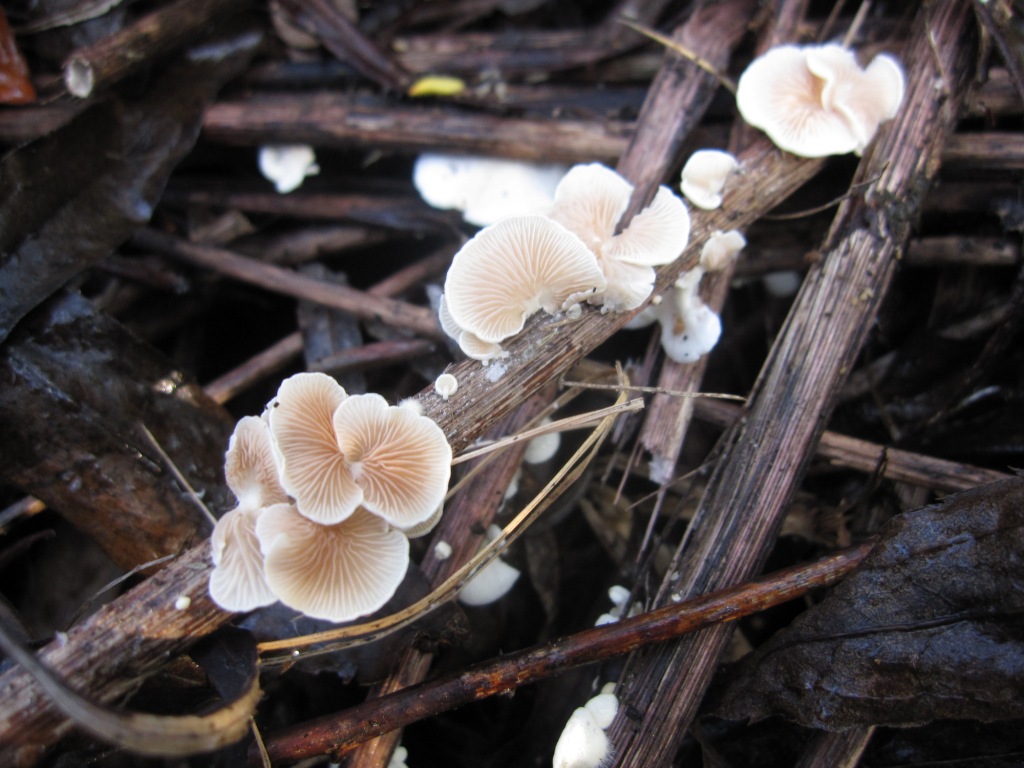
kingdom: Fungi
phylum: Basidiomycota
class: Agaricomycetes
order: Agaricales
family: Crepidotaceae
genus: Crepidotus
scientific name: Crepidotus luteolus
